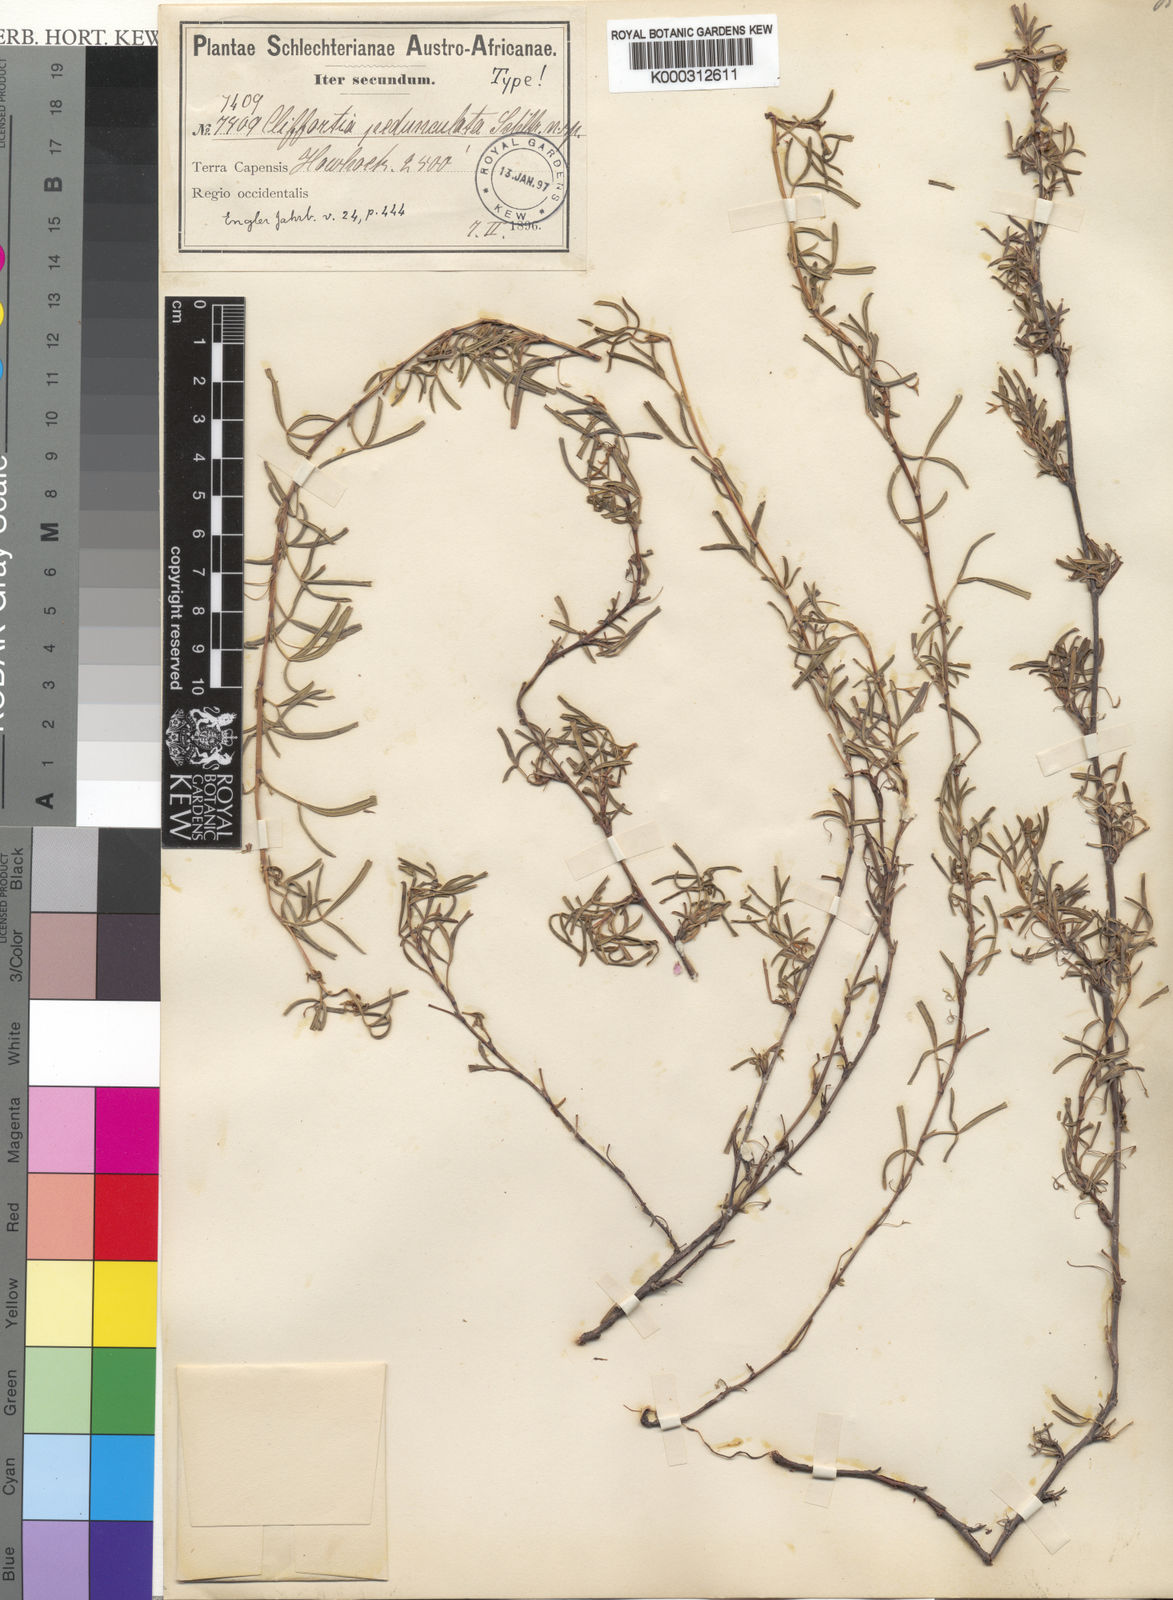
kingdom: Plantae
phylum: Tracheophyta
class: Magnoliopsida
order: Rosales
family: Rosaceae
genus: Cliffortia
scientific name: Cliffortia pedunculata
